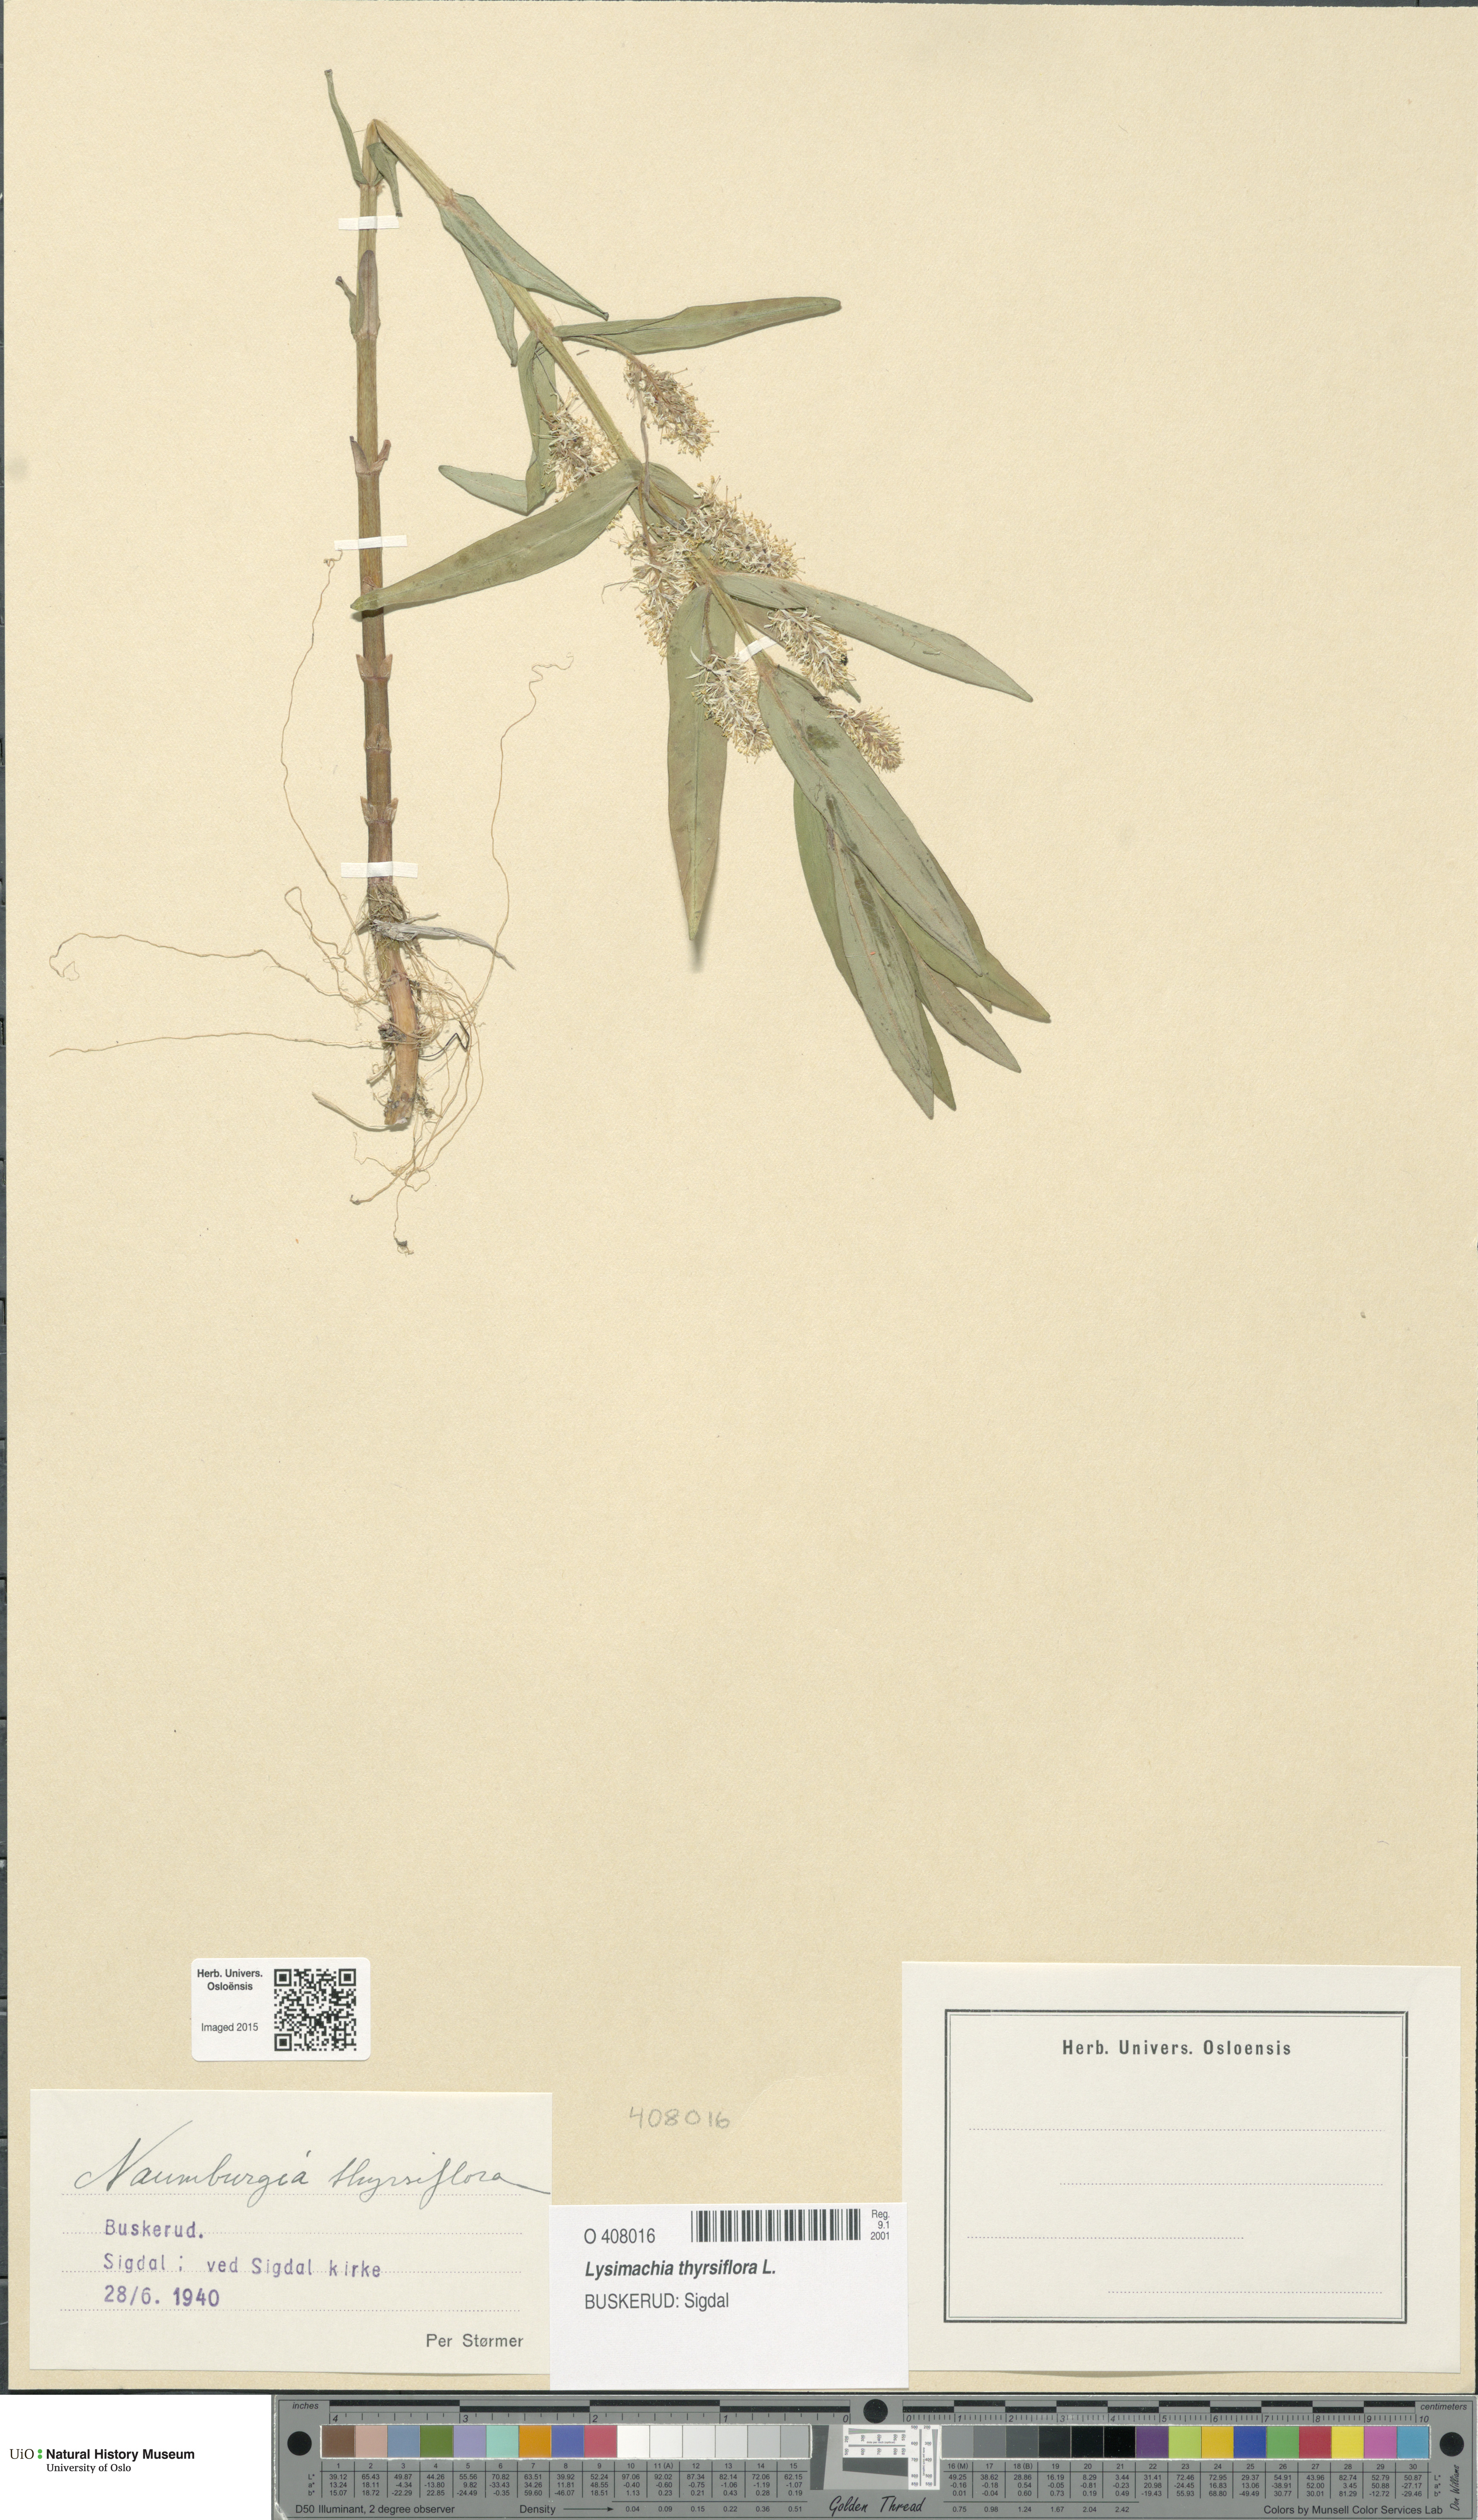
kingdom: Plantae
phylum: Tracheophyta
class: Magnoliopsida
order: Ericales
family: Primulaceae
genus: Lysimachia
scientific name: Lysimachia thyrsiflora
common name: Tufted loosestrife
